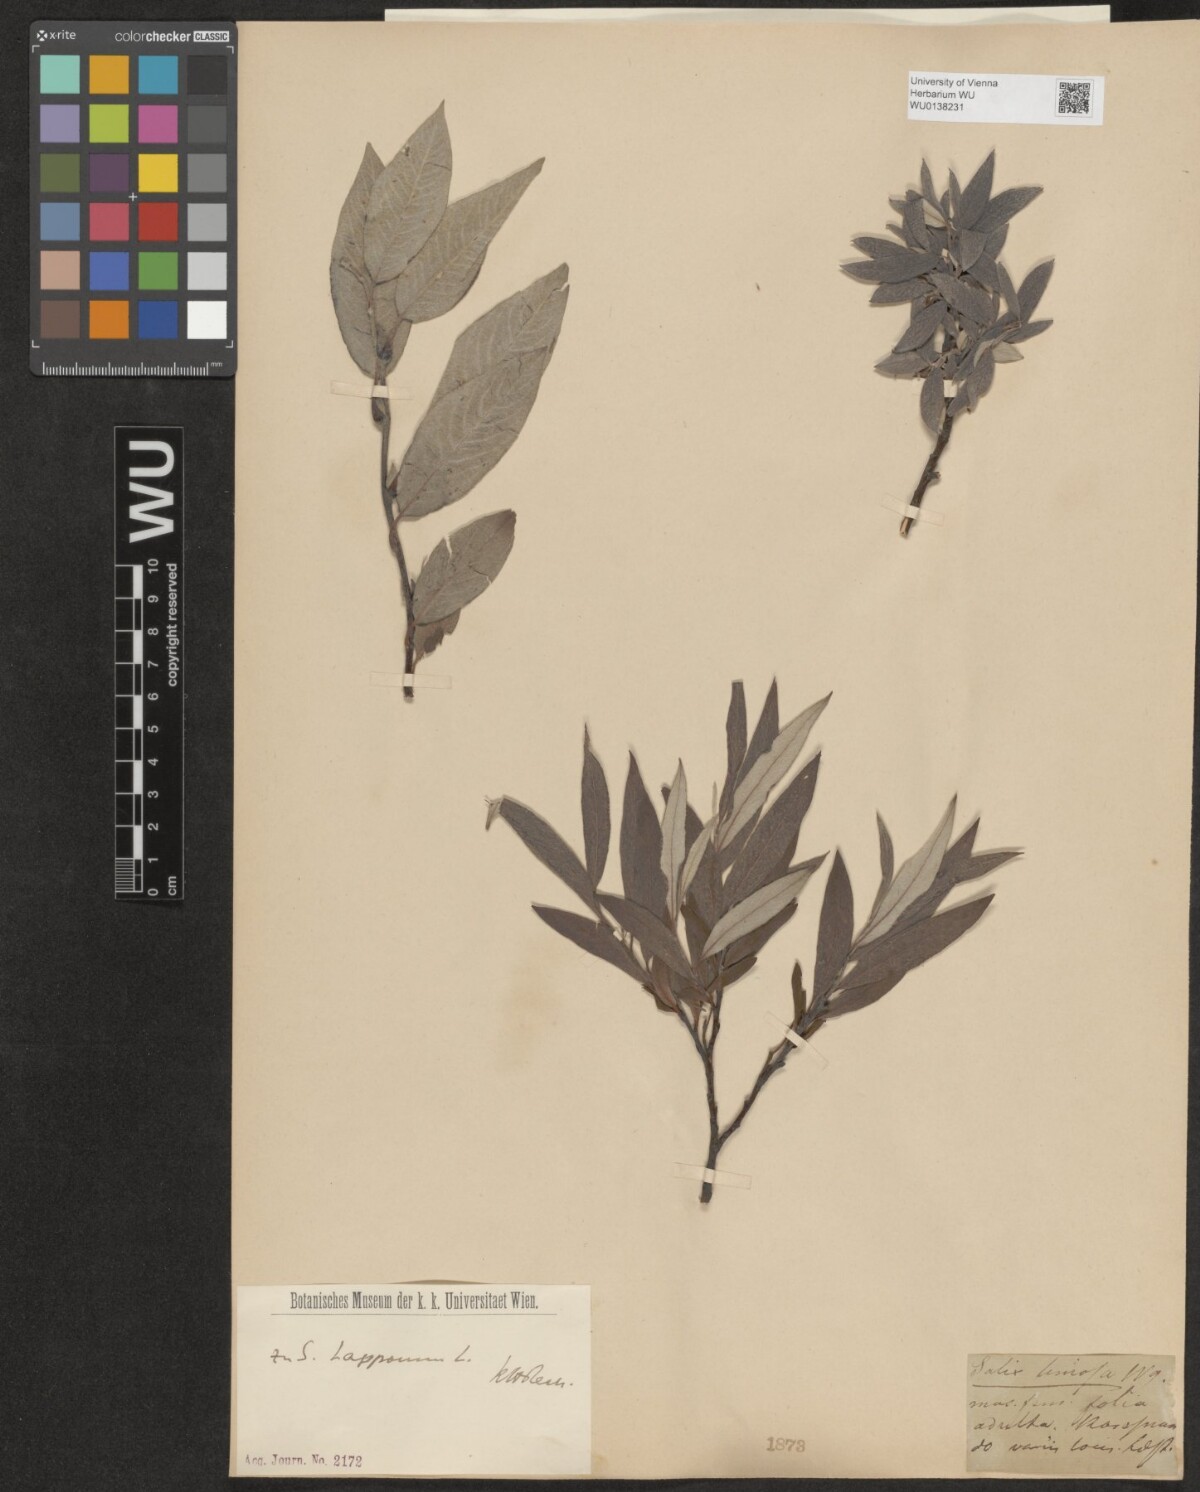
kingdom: Plantae
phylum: Tracheophyta
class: Magnoliopsida
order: Malpighiales
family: Salicaceae
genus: Salix
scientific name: Salix lapponum
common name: Downy willow
